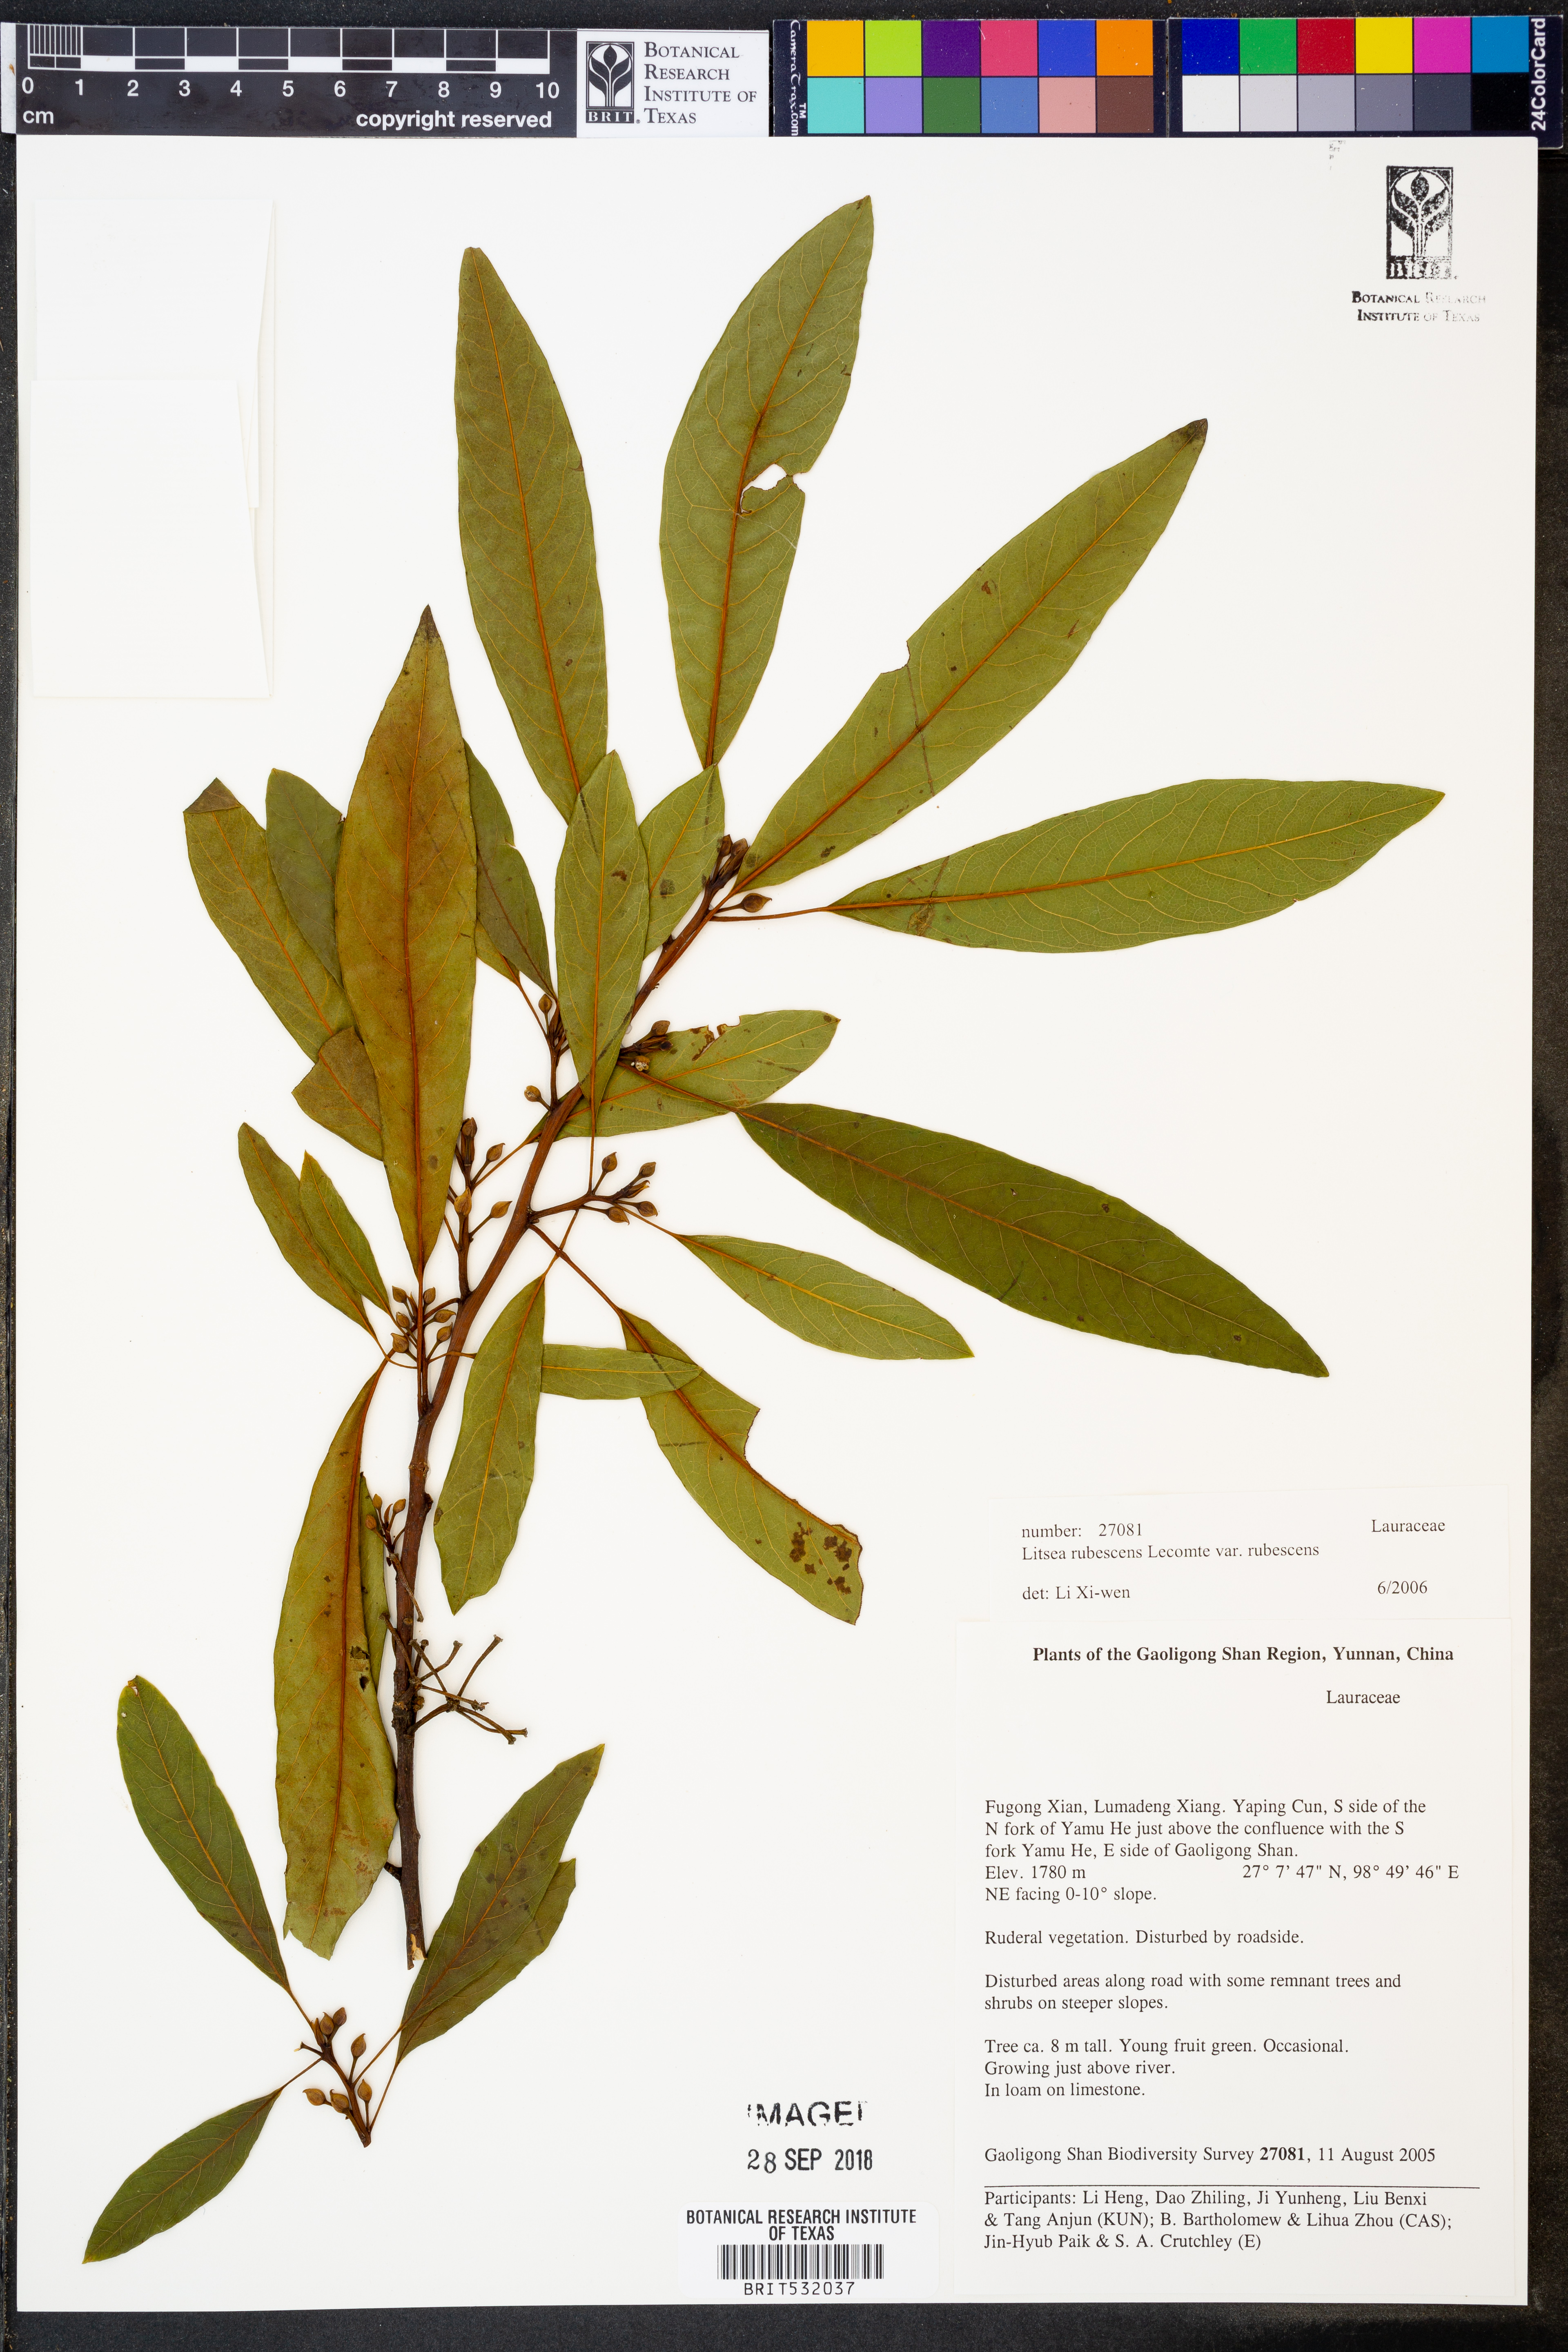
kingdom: Plantae
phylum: Tracheophyta
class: Magnoliopsida
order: Laurales
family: Lauraceae
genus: Litsea
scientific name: Litsea rubescens
